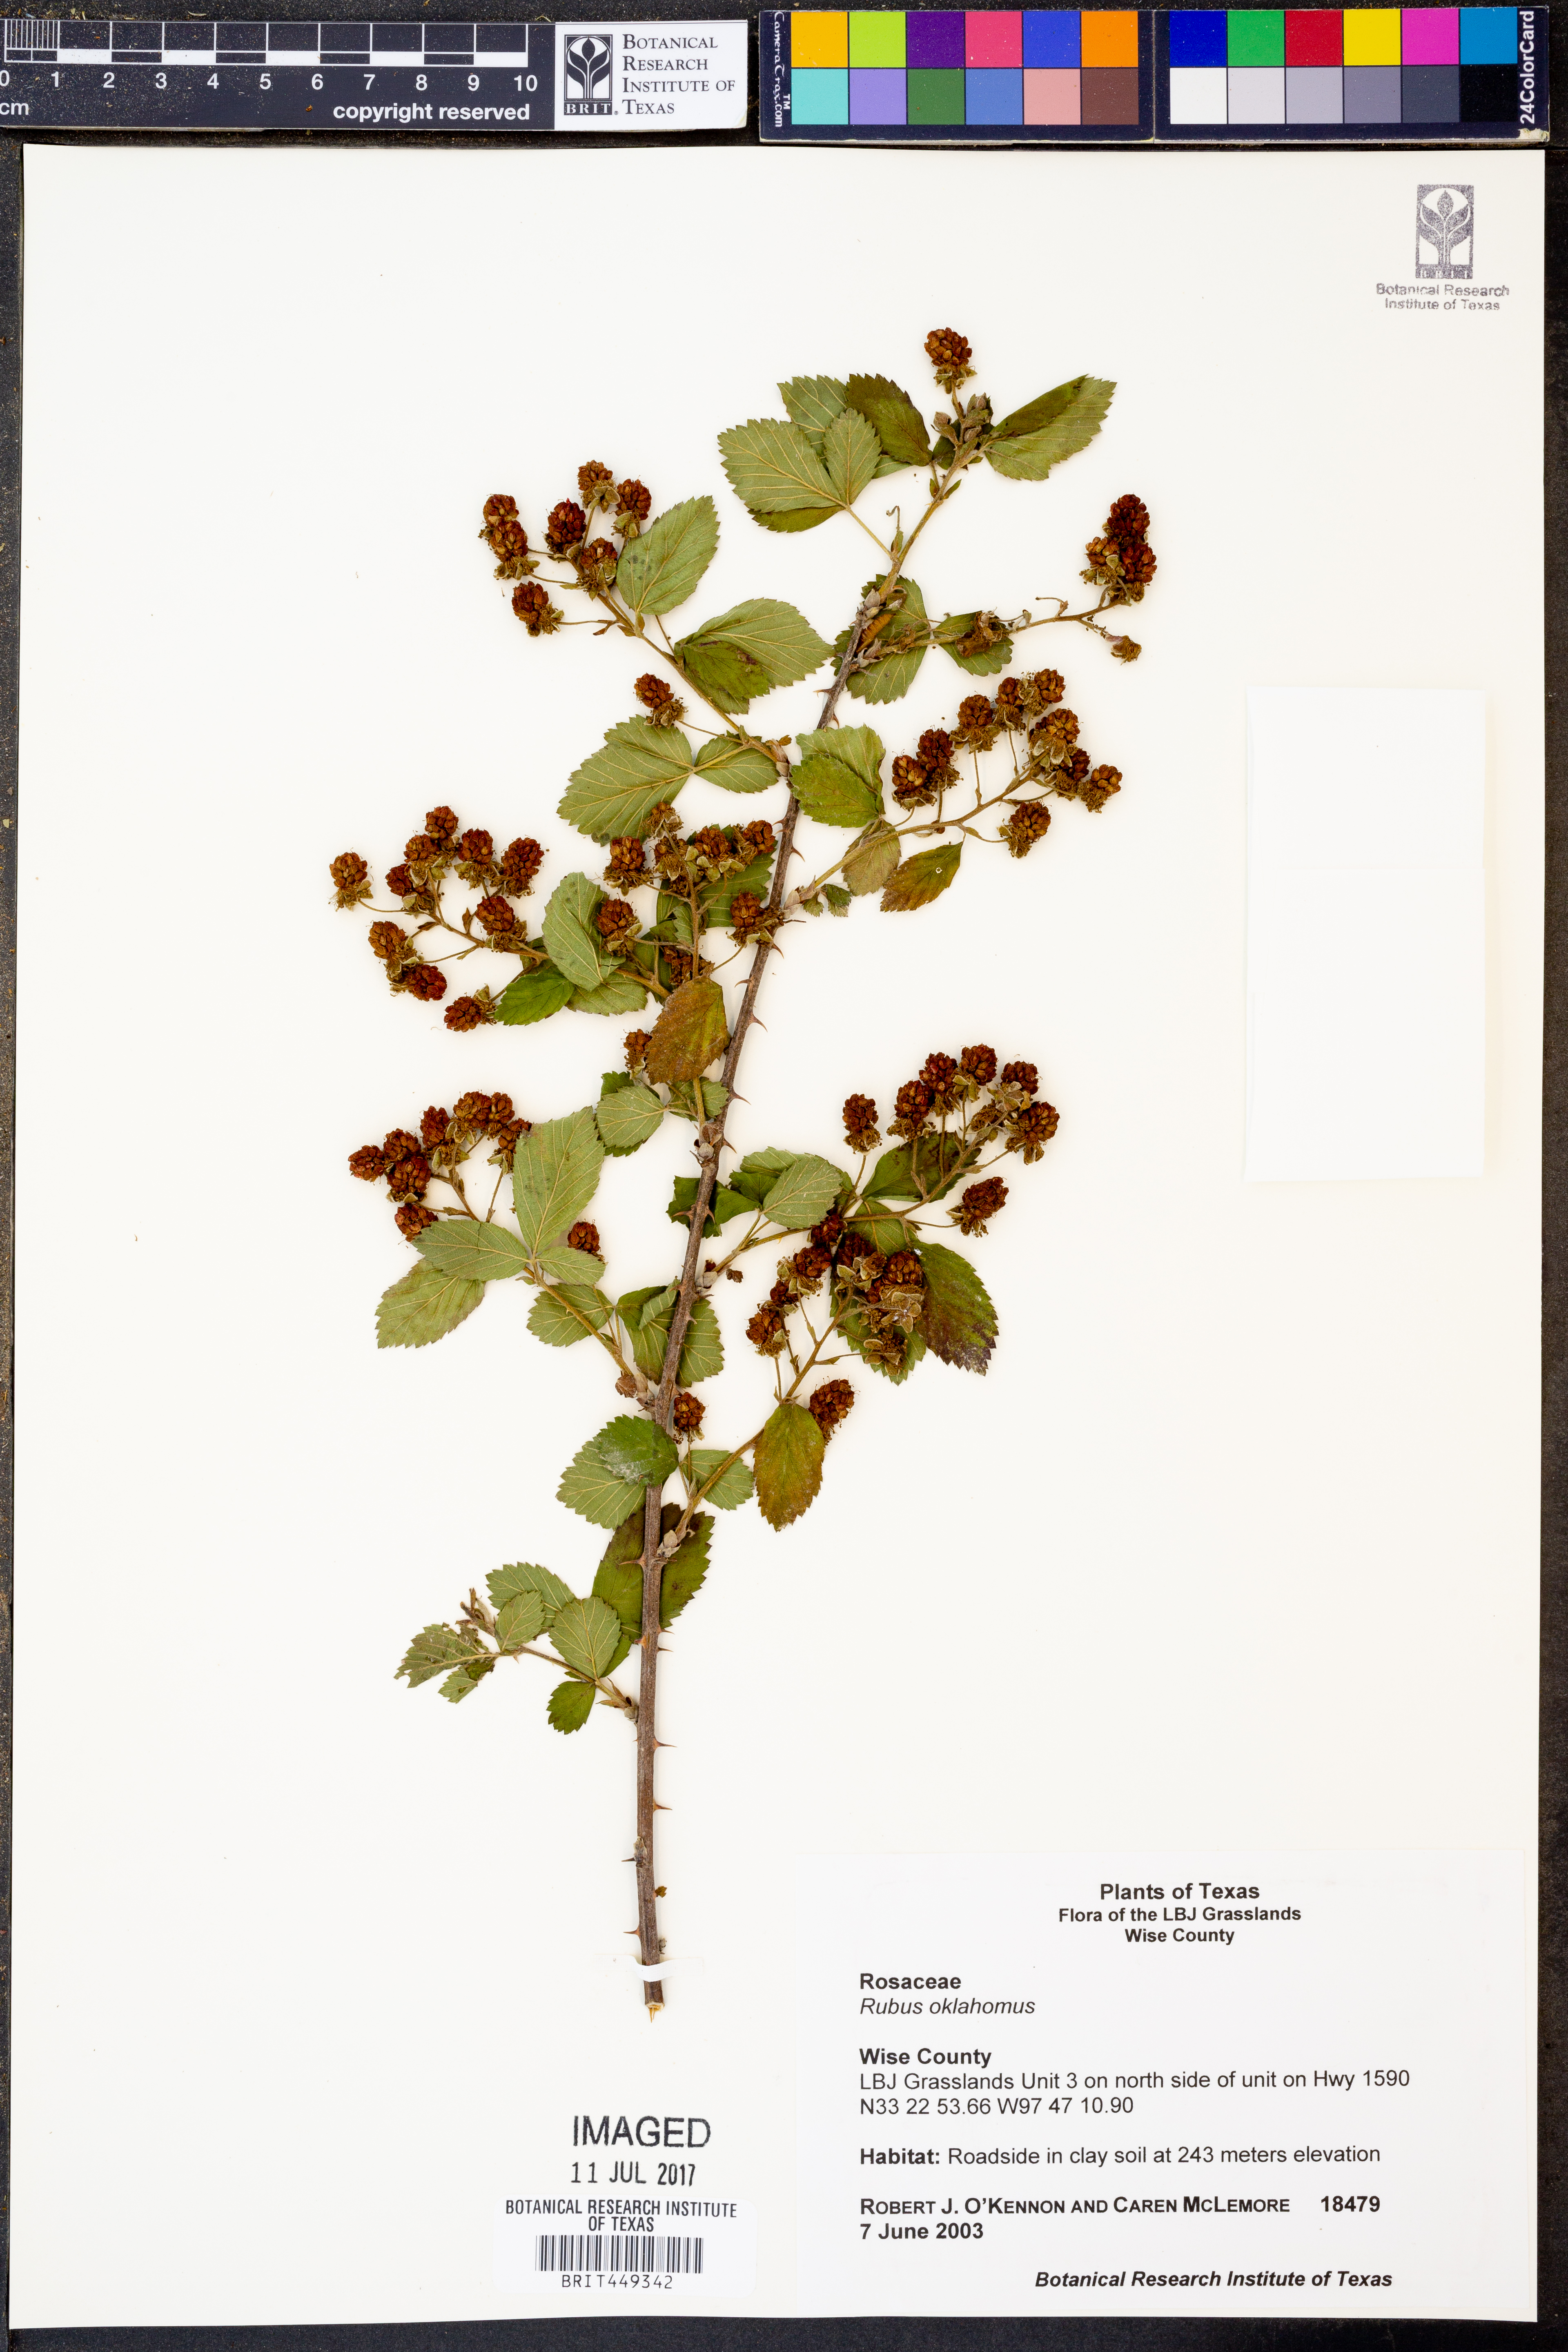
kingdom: Plantae
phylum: Tracheophyta
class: Magnoliopsida
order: Rosales
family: Rosaceae
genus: Rubus
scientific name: Rubus oklahomus
